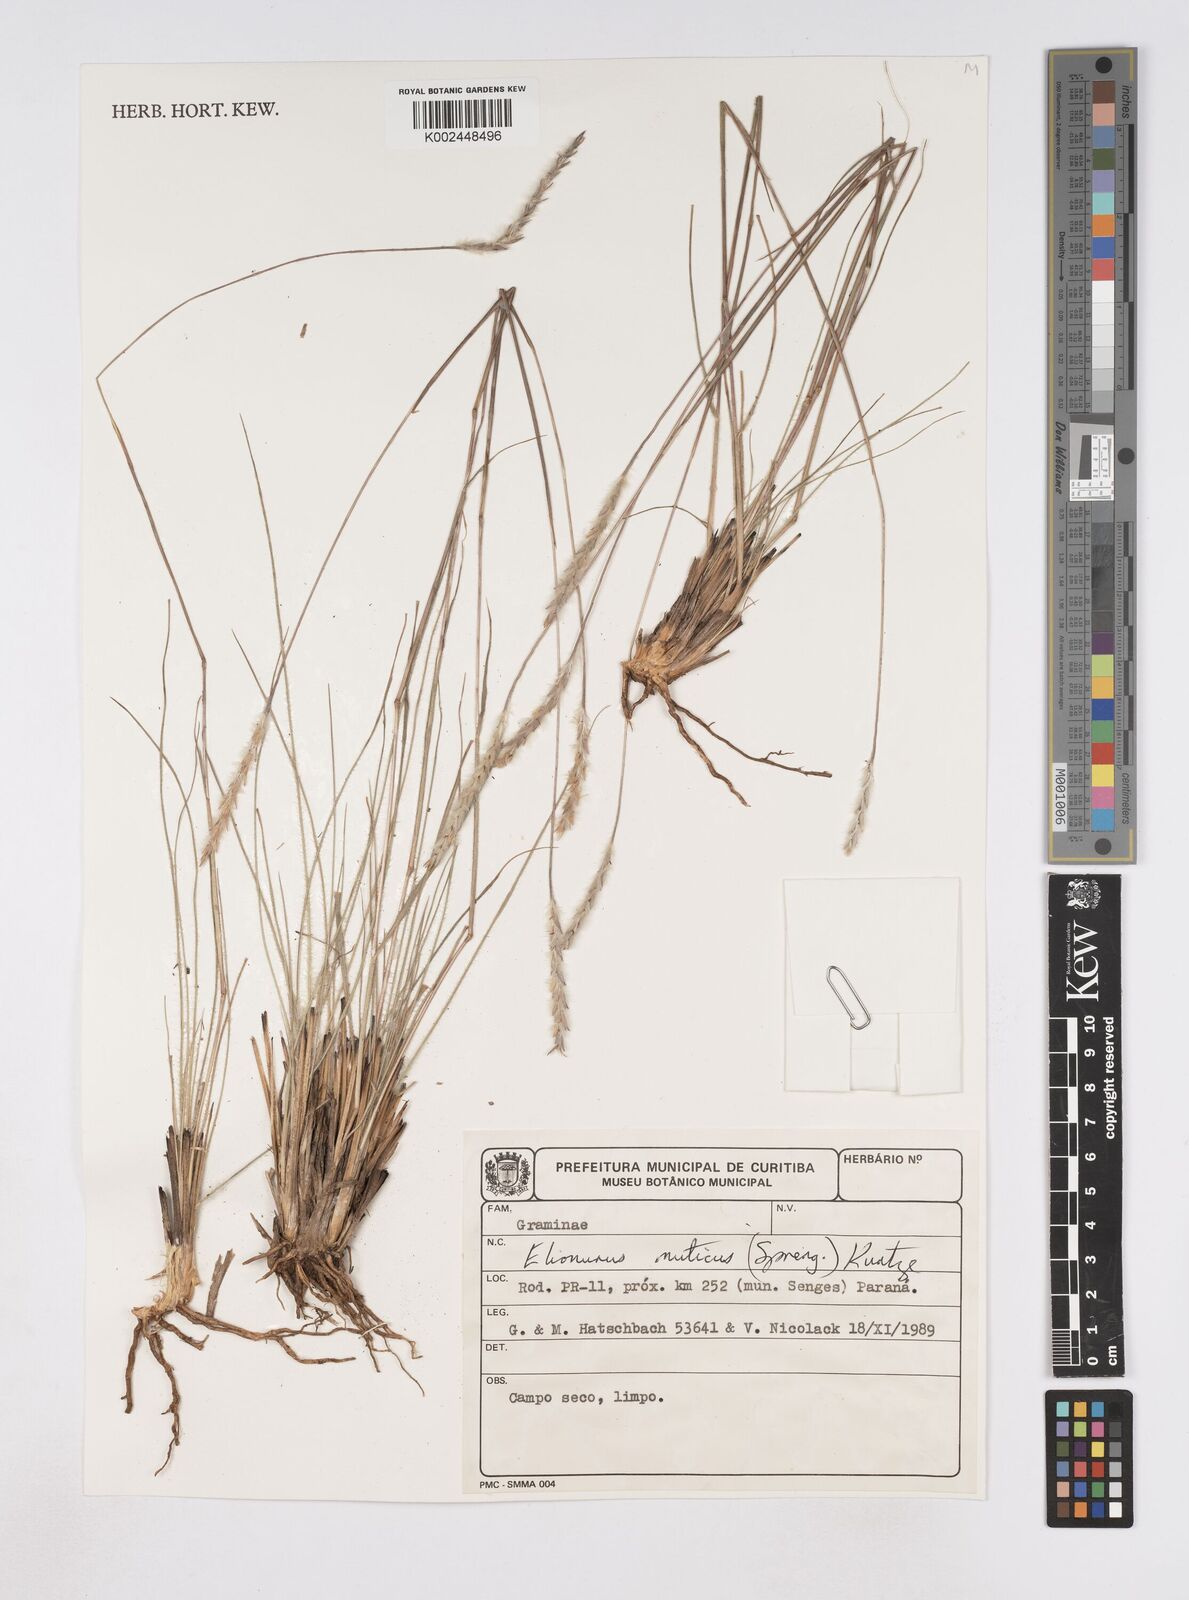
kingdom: Plantae
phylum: Tracheophyta
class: Liliopsida
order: Poales
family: Poaceae
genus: Elionurus
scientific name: Elionurus muticus
